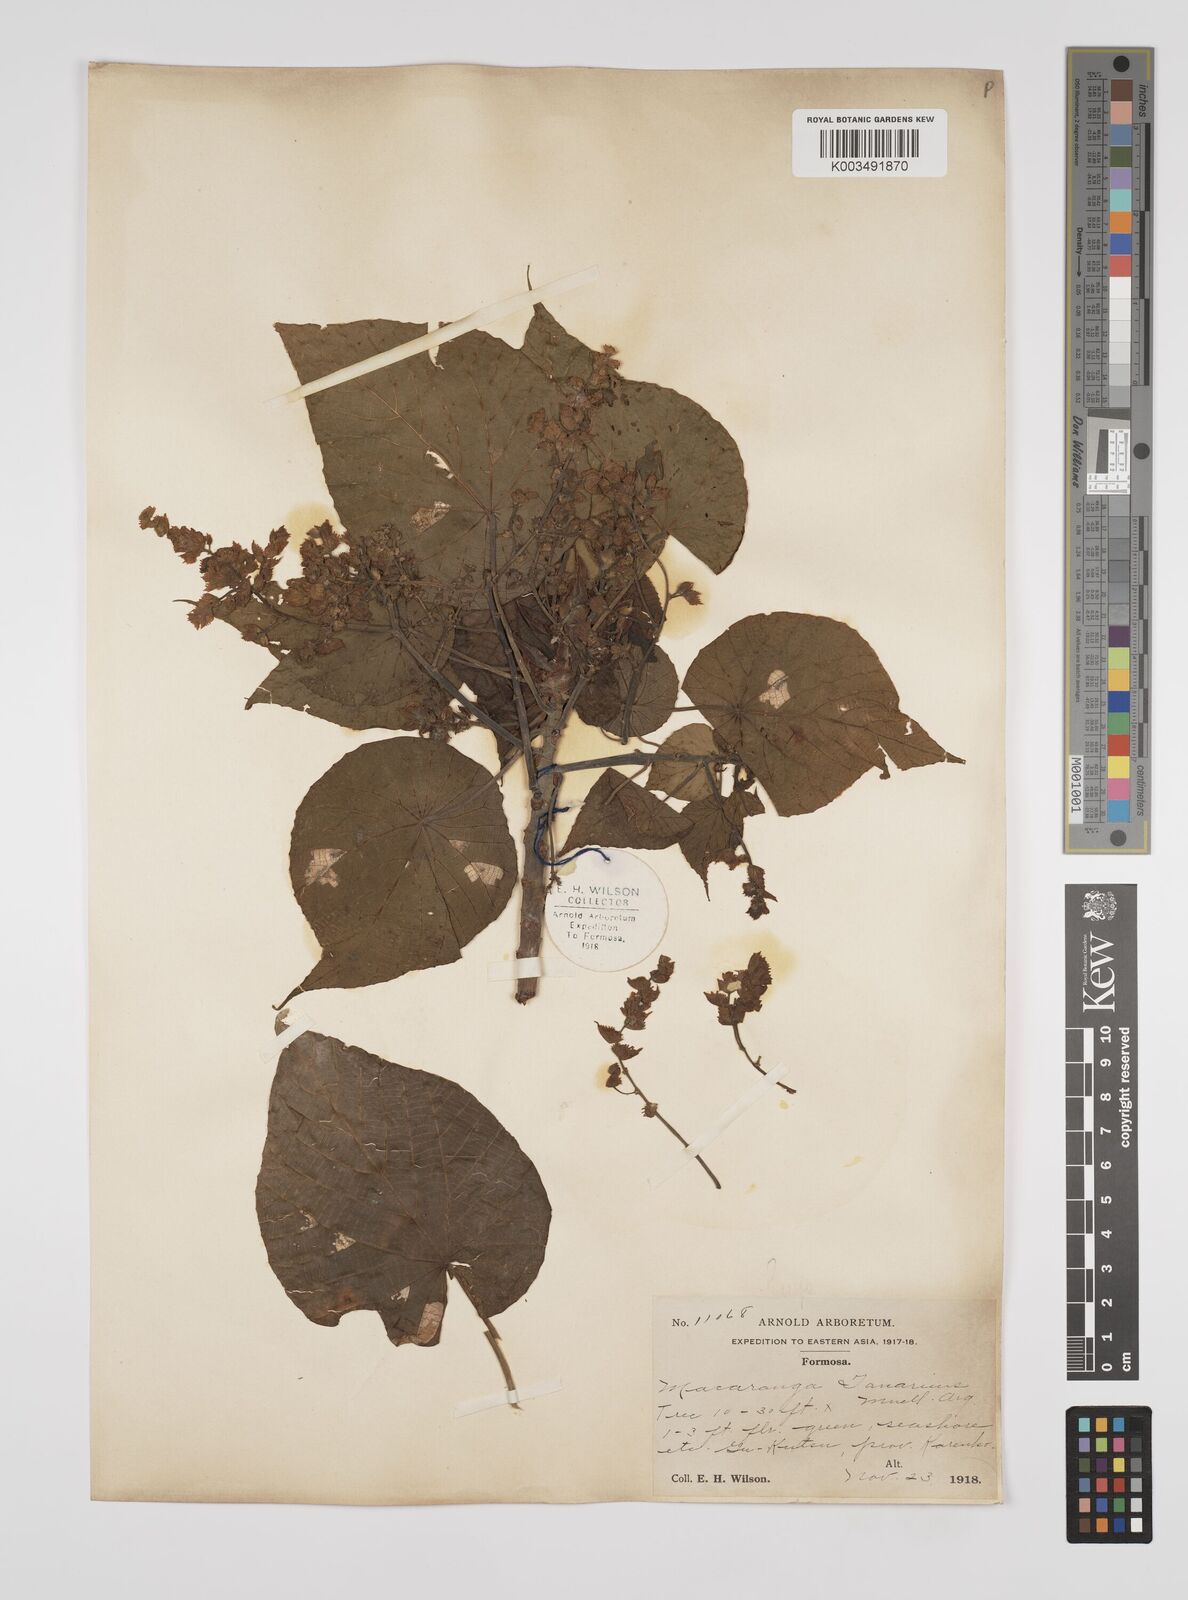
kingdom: Plantae
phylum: Tracheophyta
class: Magnoliopsida
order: Malpighiales
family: Euphorbiaceae
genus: Macaranga
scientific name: Macaranga tanarius
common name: Parasol leaf tree
